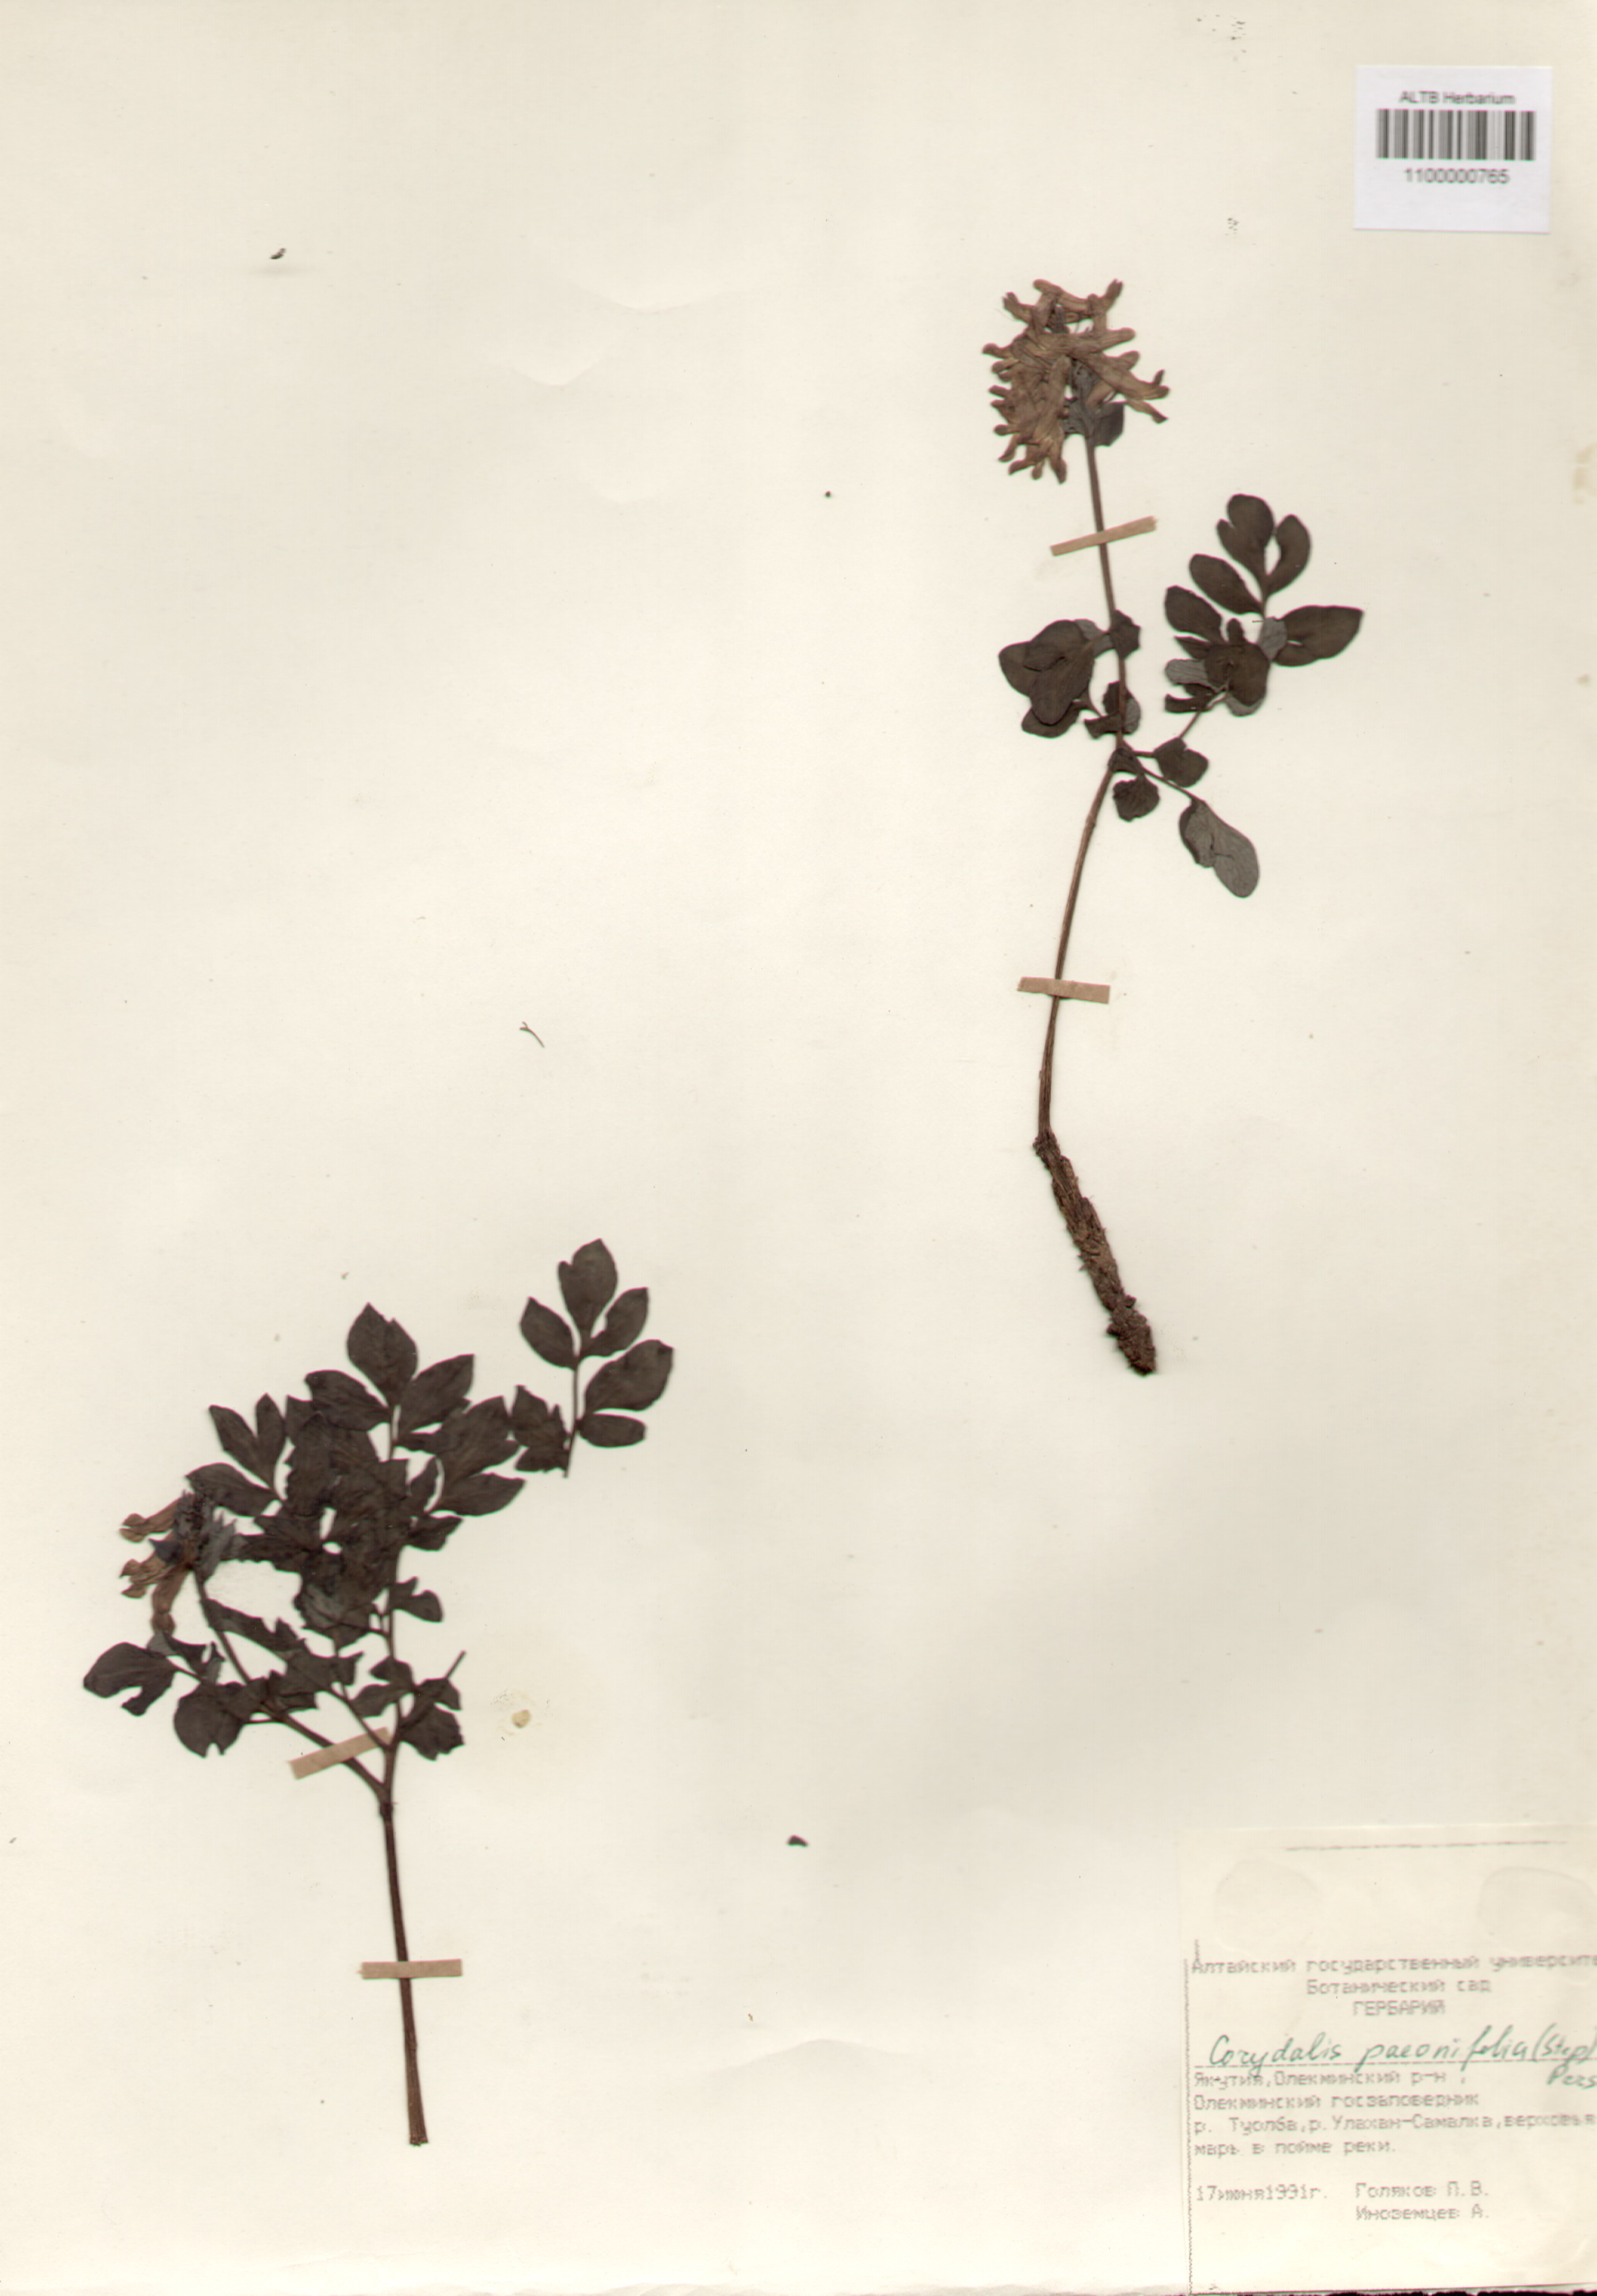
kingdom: Plantae
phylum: Tracheophyta
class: Magnoliopsida
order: Ranunculales
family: Papaveraceae
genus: Corydalis
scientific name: Corydalis paeoniifolia
